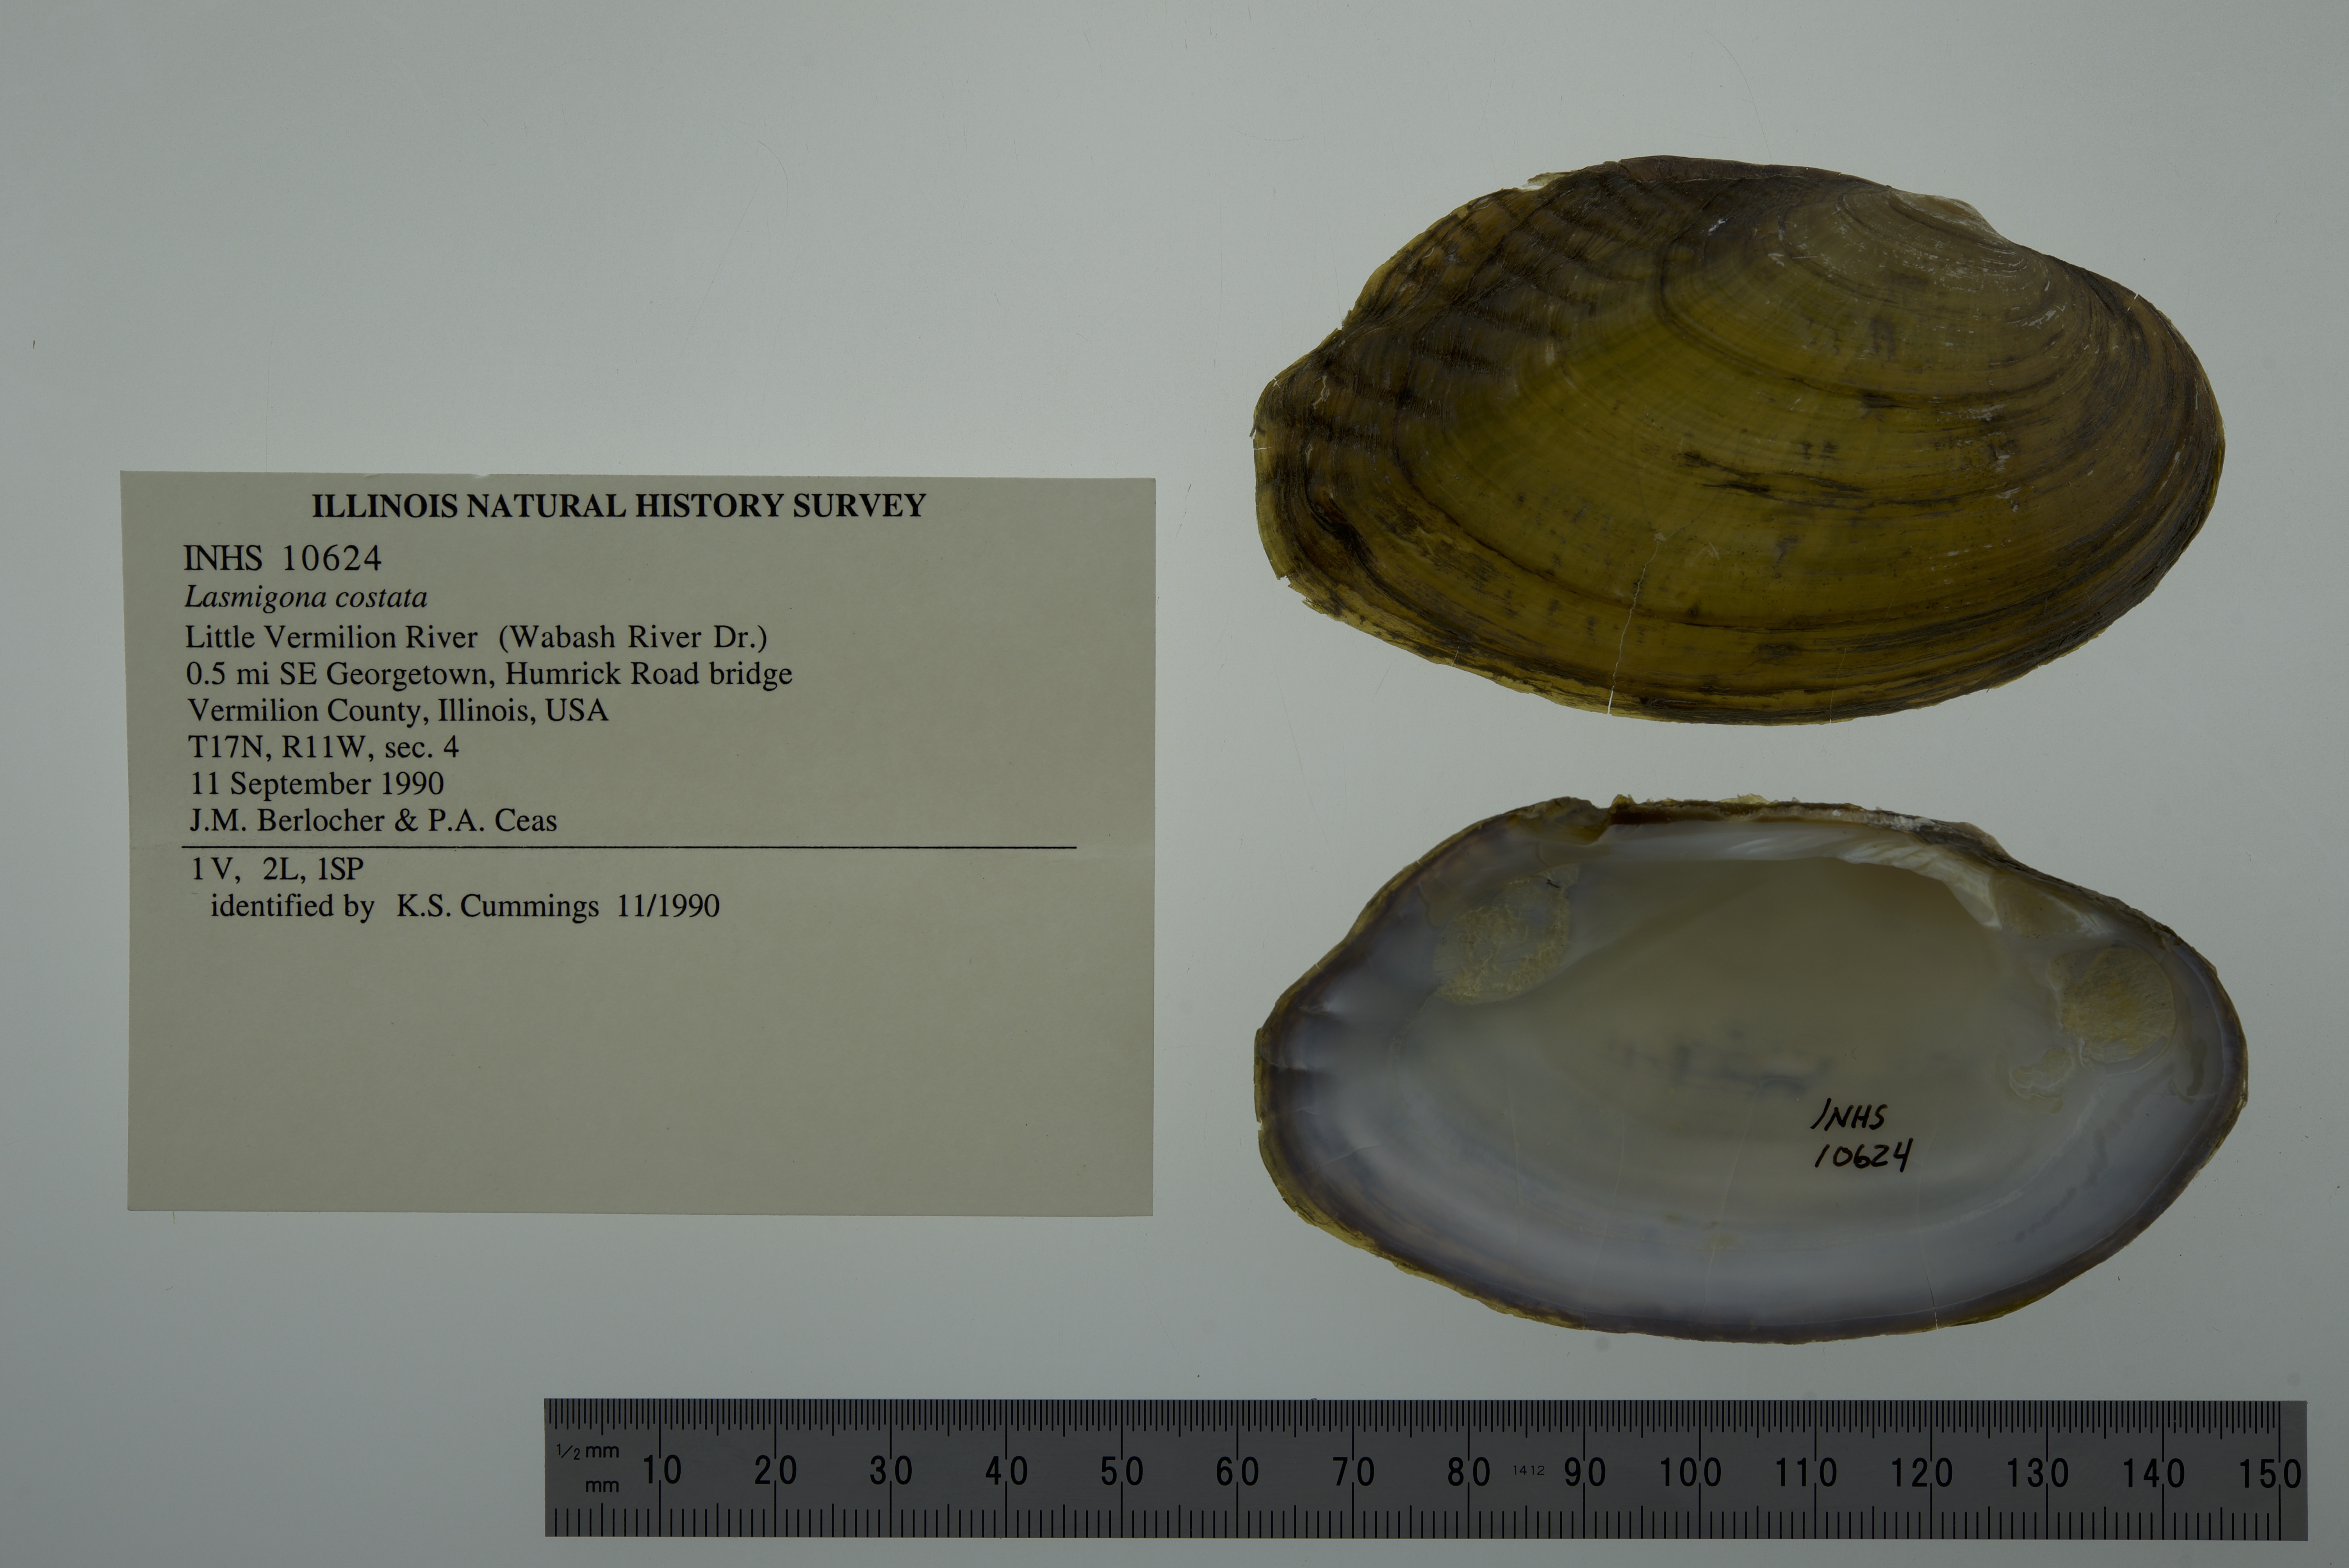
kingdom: Animalia
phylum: Mollusca
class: Bivalvia
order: Unionida
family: Unionidae
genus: Lasmigona
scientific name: Lasmigona costata
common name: Flutedshell
